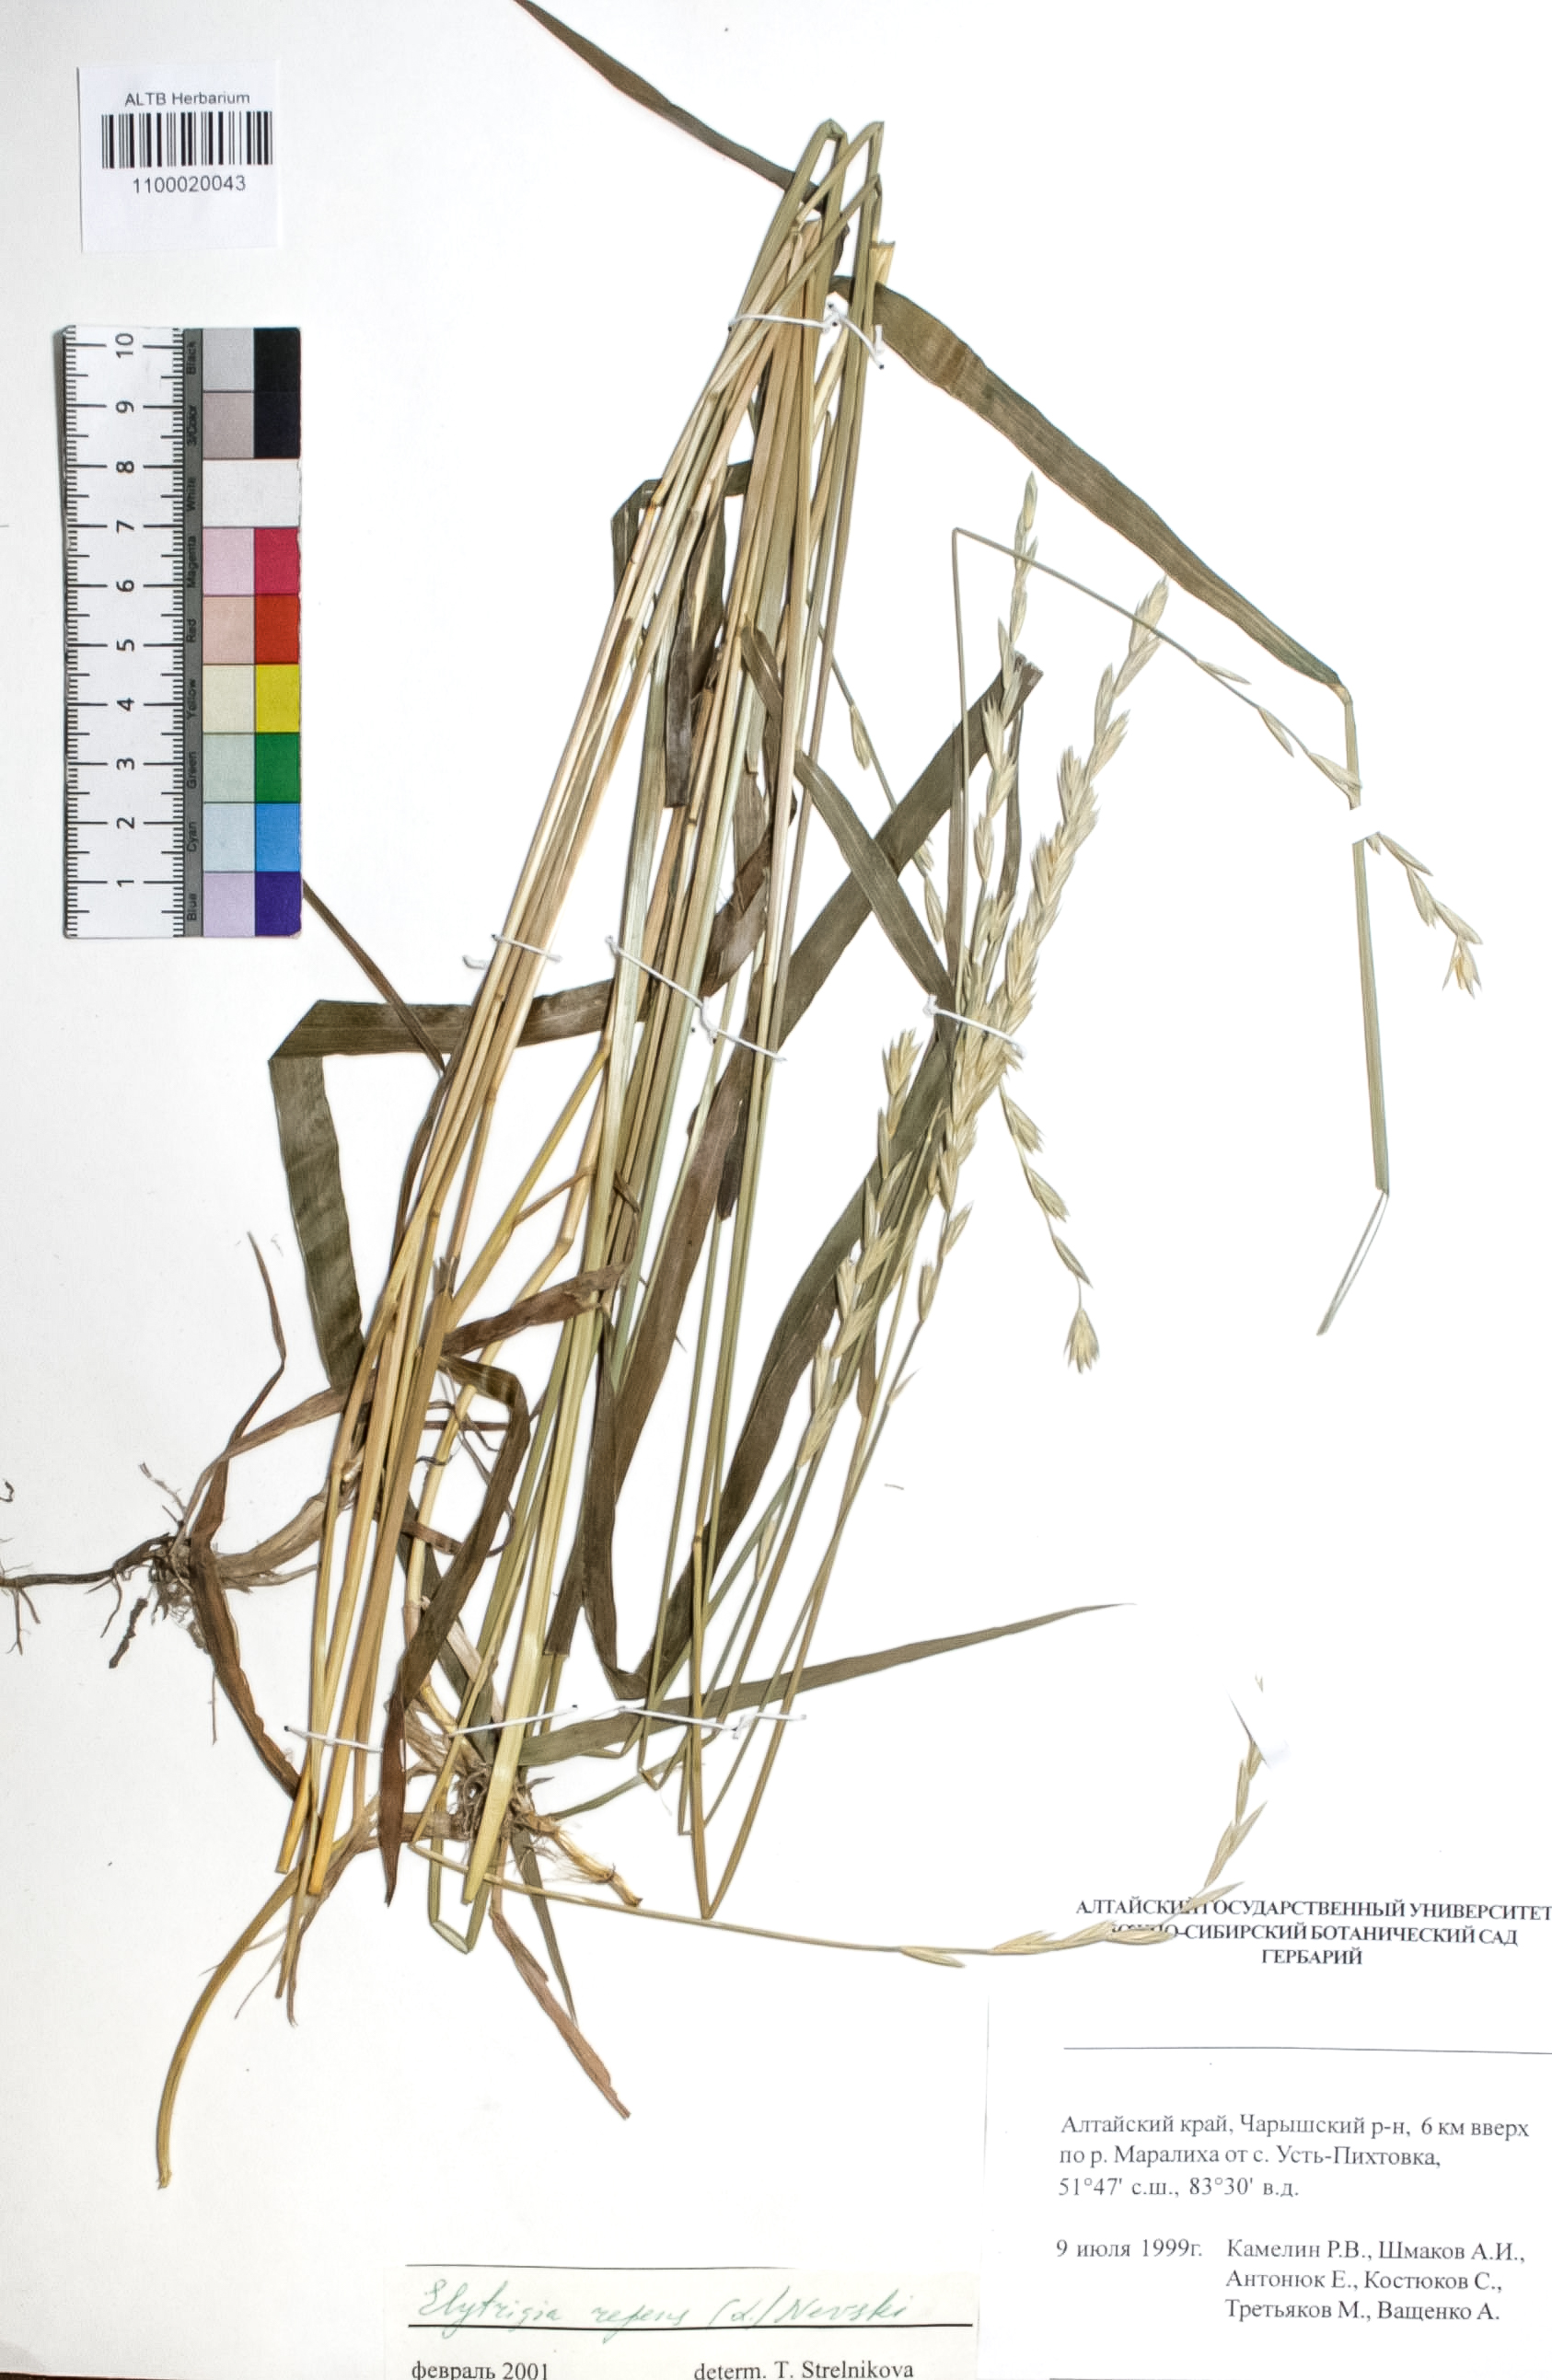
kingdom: Plantae
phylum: Tracheophyta
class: Liliopsida
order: Poales
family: Poaceae
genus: Elymus
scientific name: Elymus repens
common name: Quackgrass
